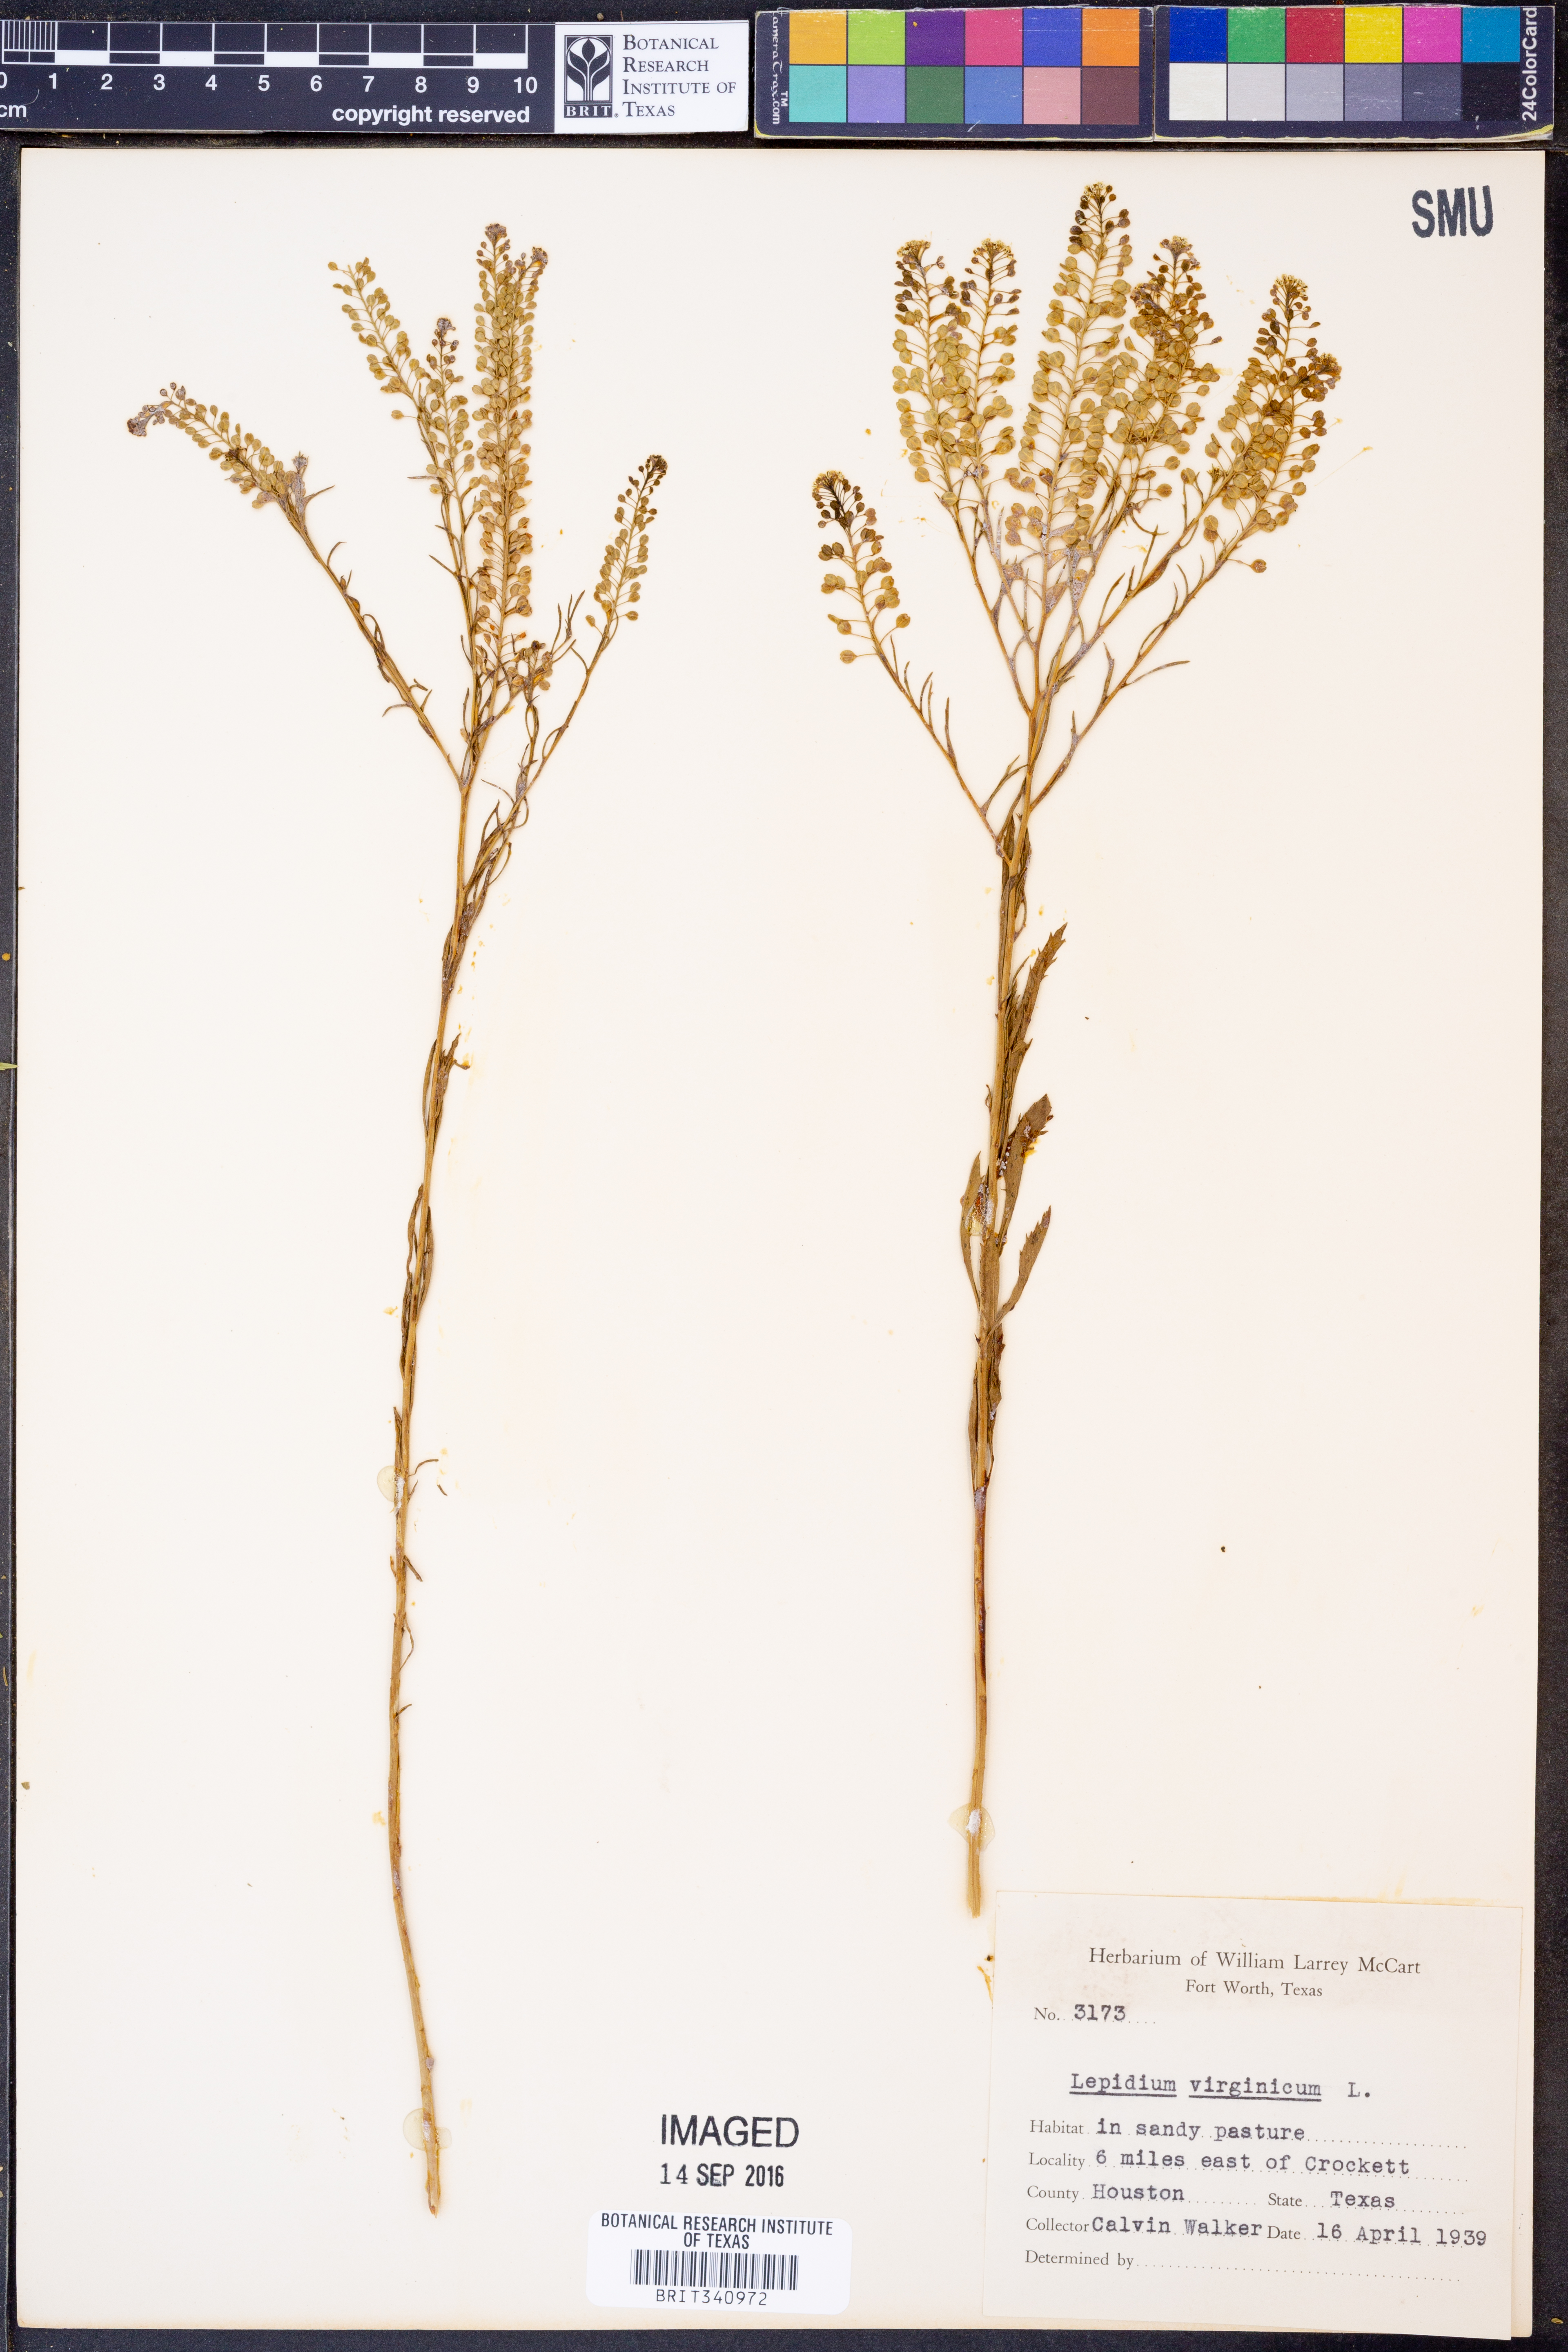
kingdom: Plantae
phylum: Tracheophyta
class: Magnoliopsida
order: Brassicales
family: Brassicaceae
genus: Lepidium
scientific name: Lepidium virginicum
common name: Least pepperwort
